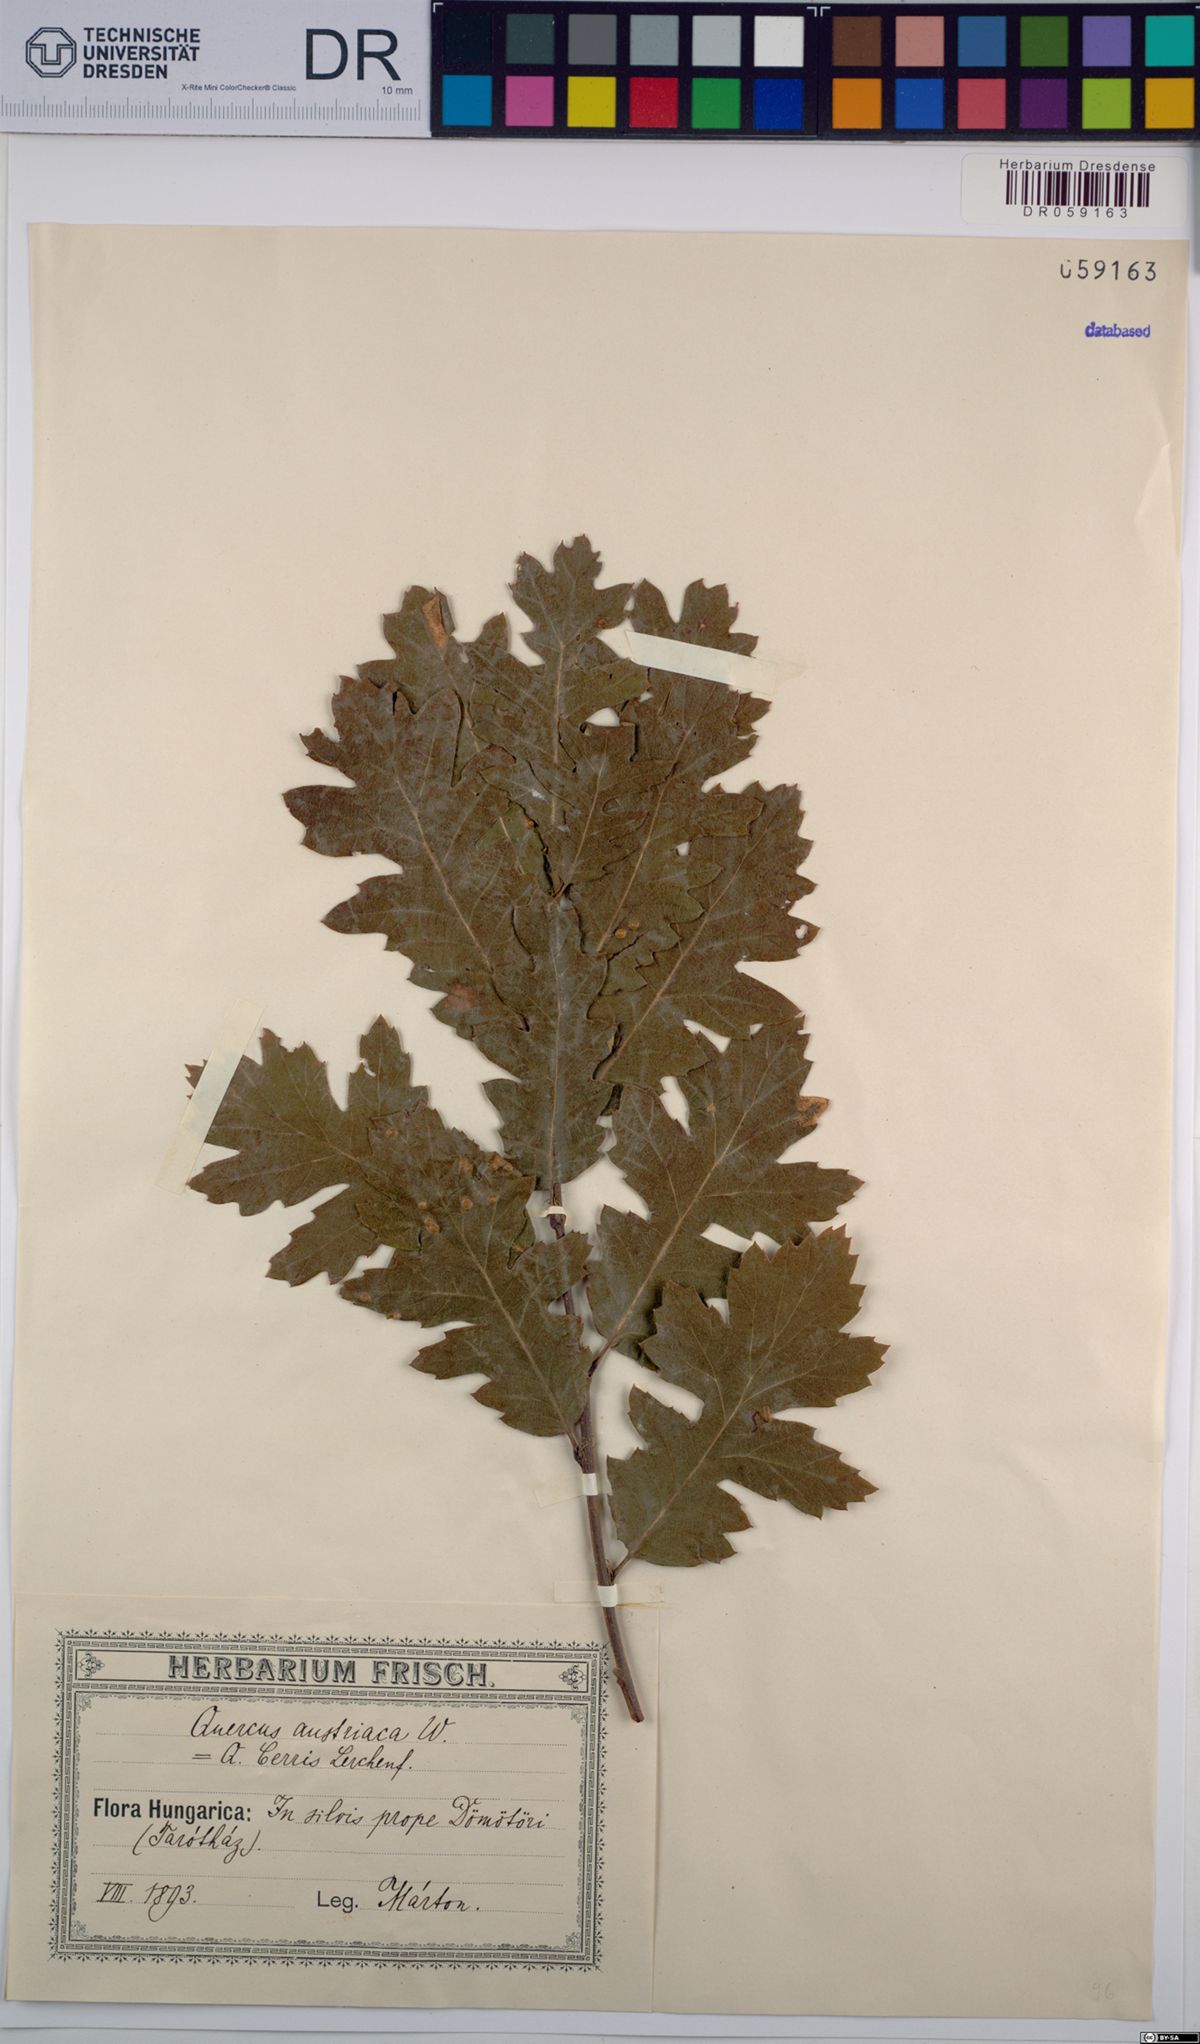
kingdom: Plantae
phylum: Tracheophyta
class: Magnoliopsida
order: Fagales
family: Fagaceae
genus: Quercus
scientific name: Quercus cerris
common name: Turkey oak
